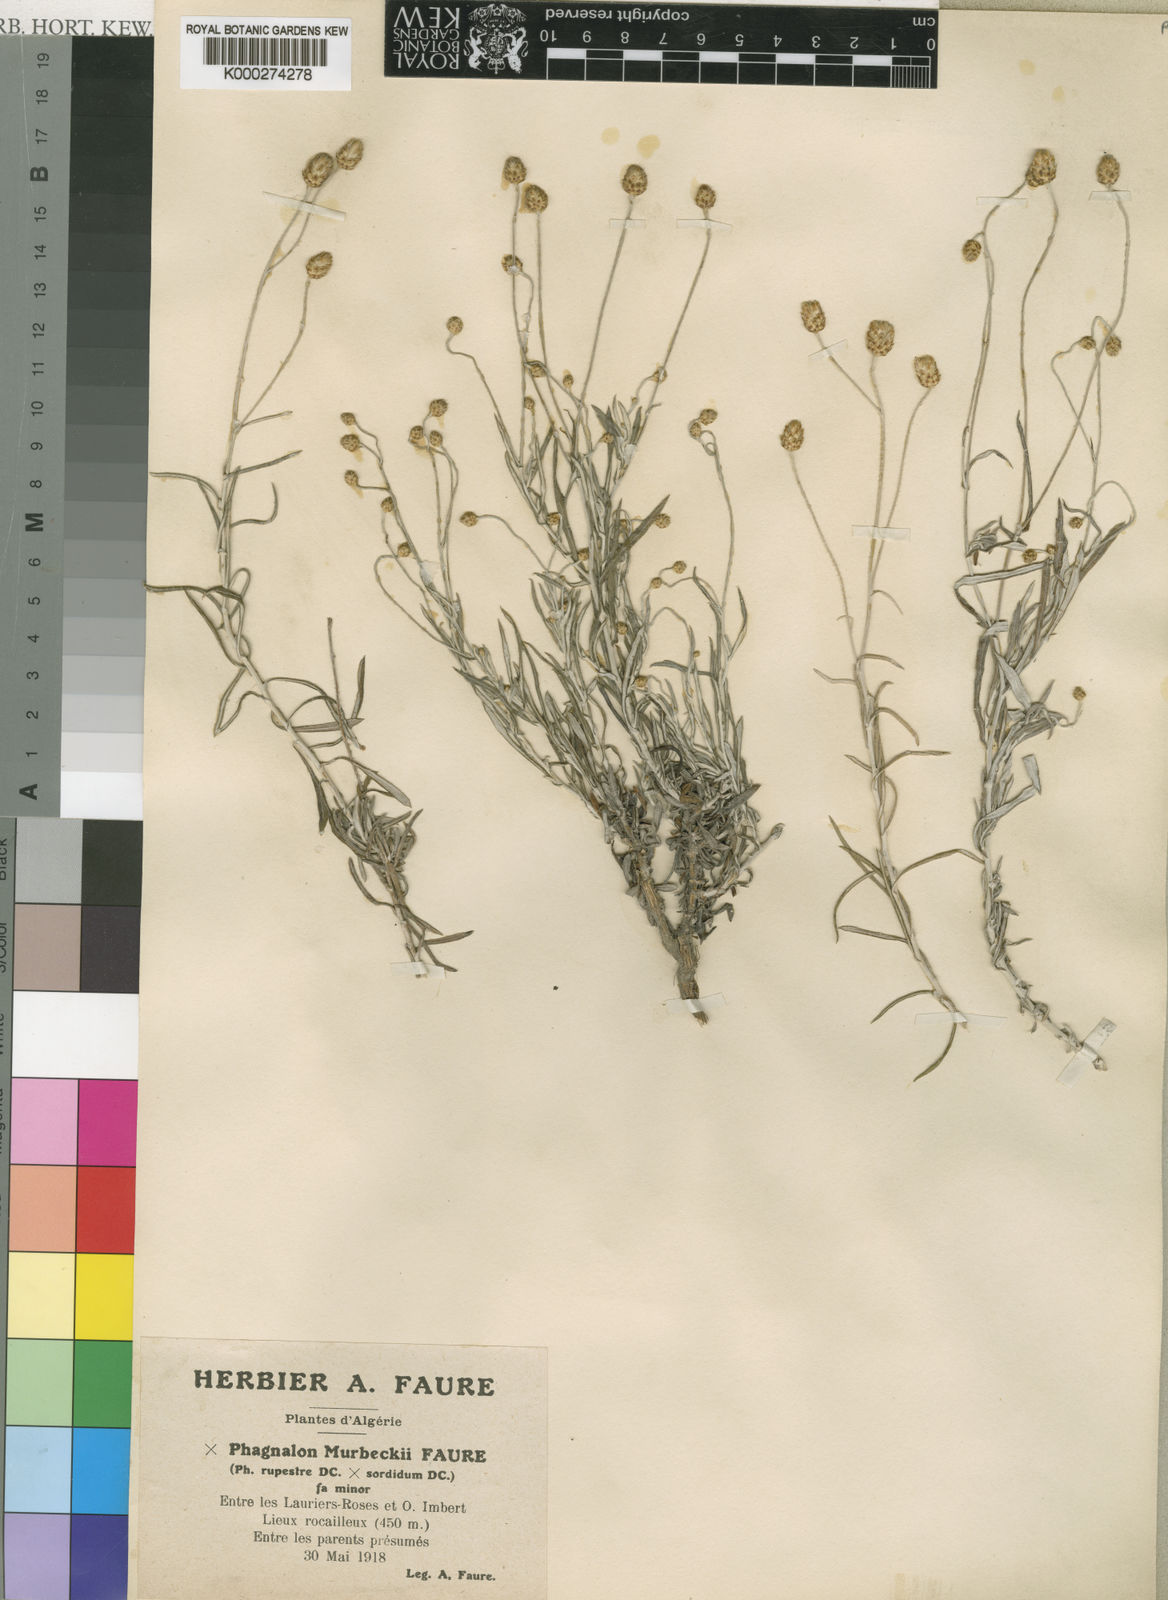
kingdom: Plantae
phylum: Tracheophyta
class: Magnoliopsida
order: Asterales
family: Asteraceae
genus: Phagnalon
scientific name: Phagnalon murbeckii
